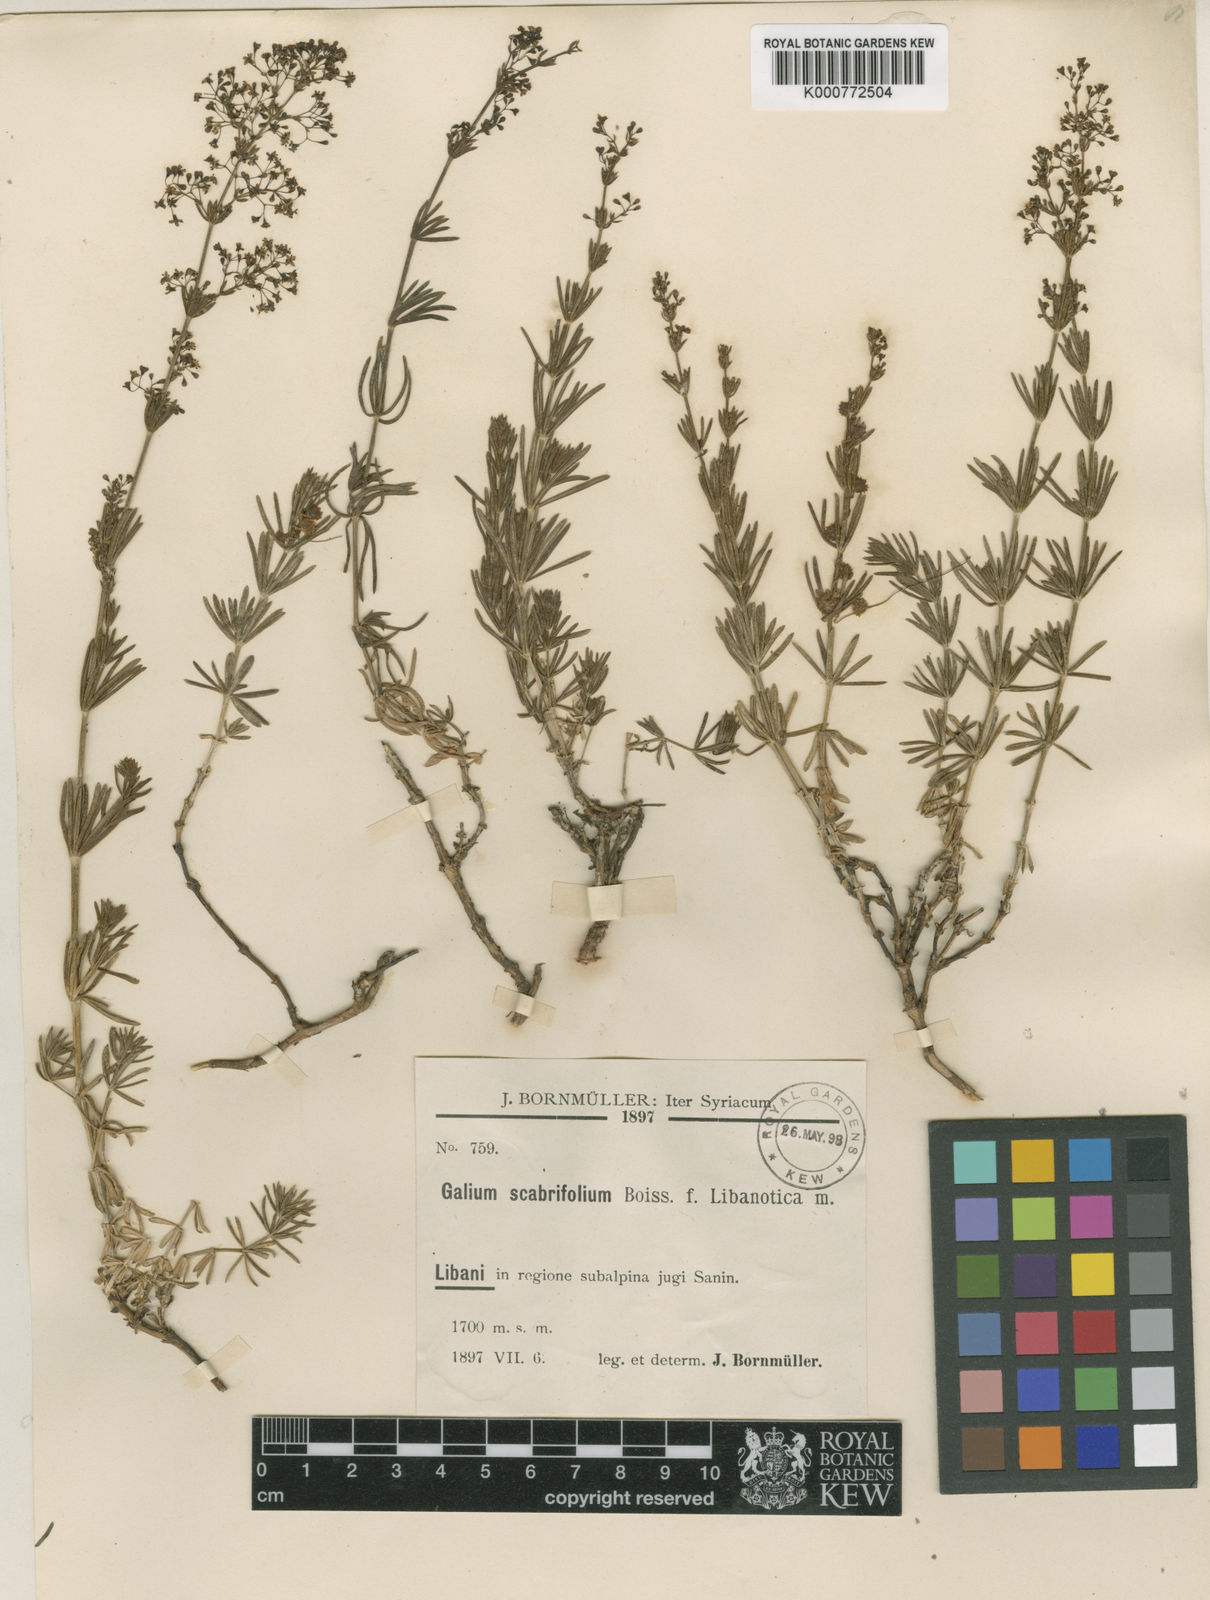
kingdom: Plantae
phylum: Tracheophyta
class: Magnoliopsida
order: Gentianales
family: Rubiaceae
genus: Galium
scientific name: Galium incurvum
